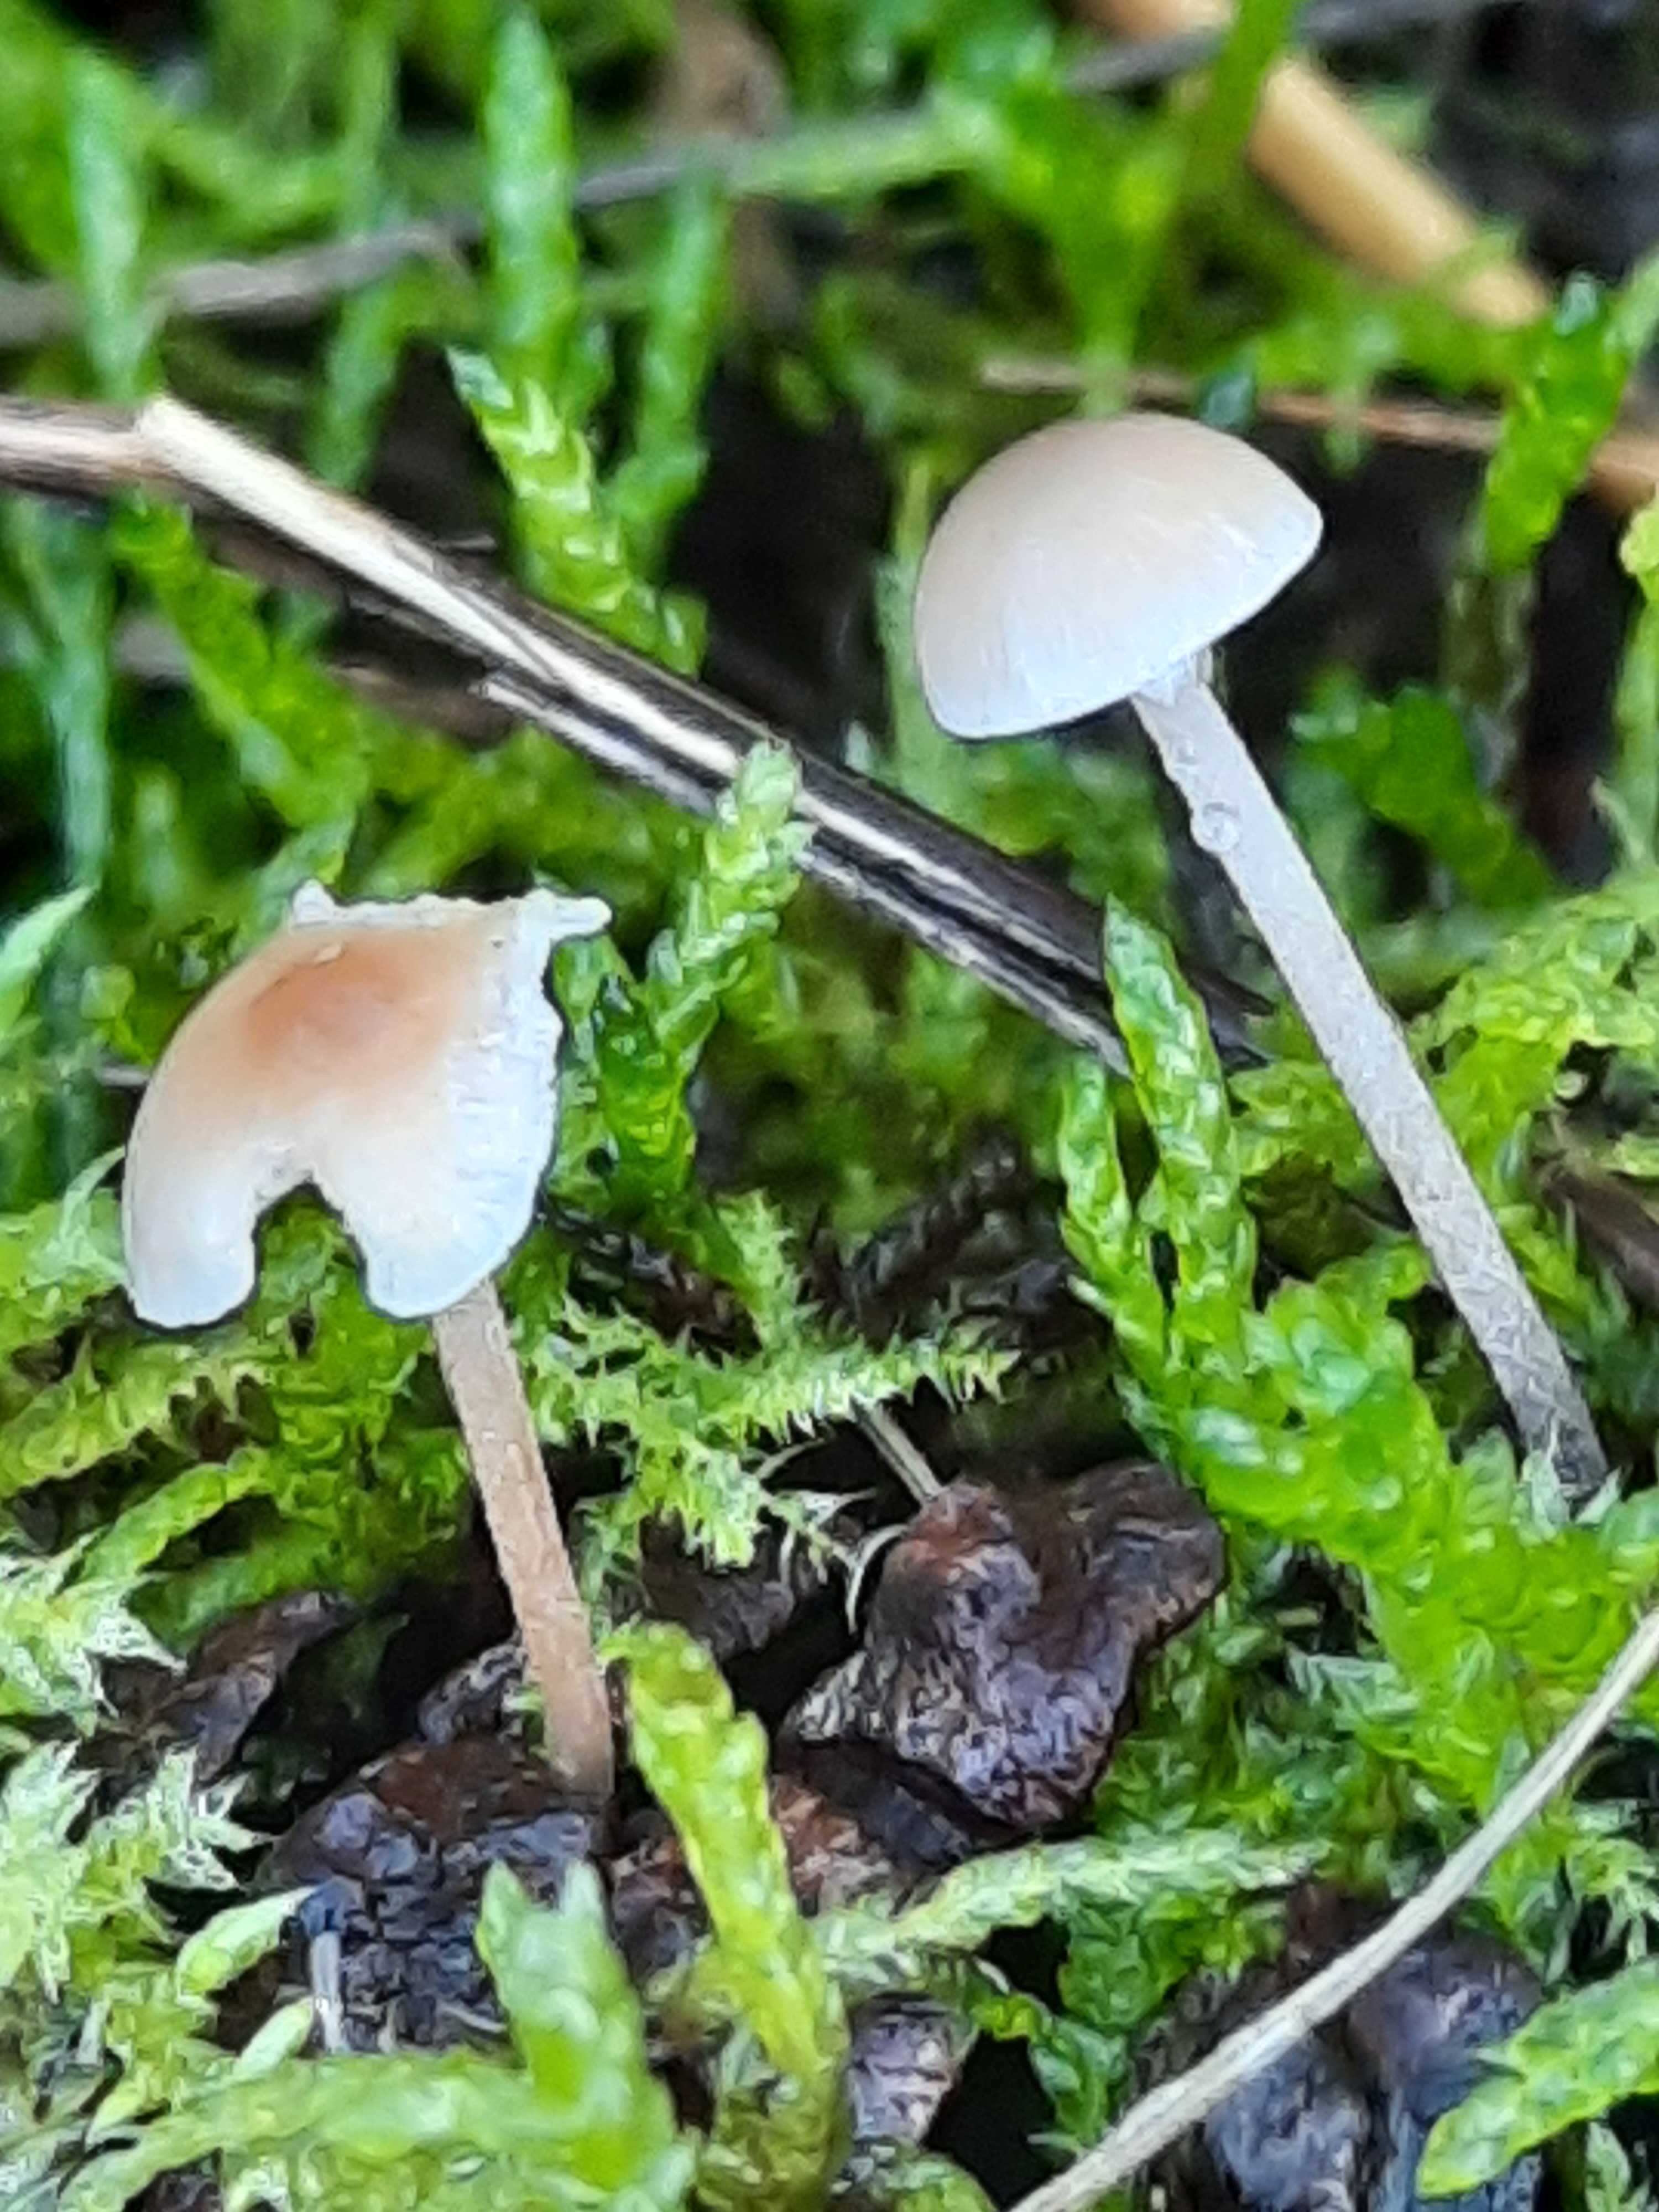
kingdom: Fungi
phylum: Basidiomycota
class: Agaricomycetes
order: Agaricales
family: Marasmiaceae
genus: Baeospora
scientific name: Baeospora myosura
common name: koglebruskhat
